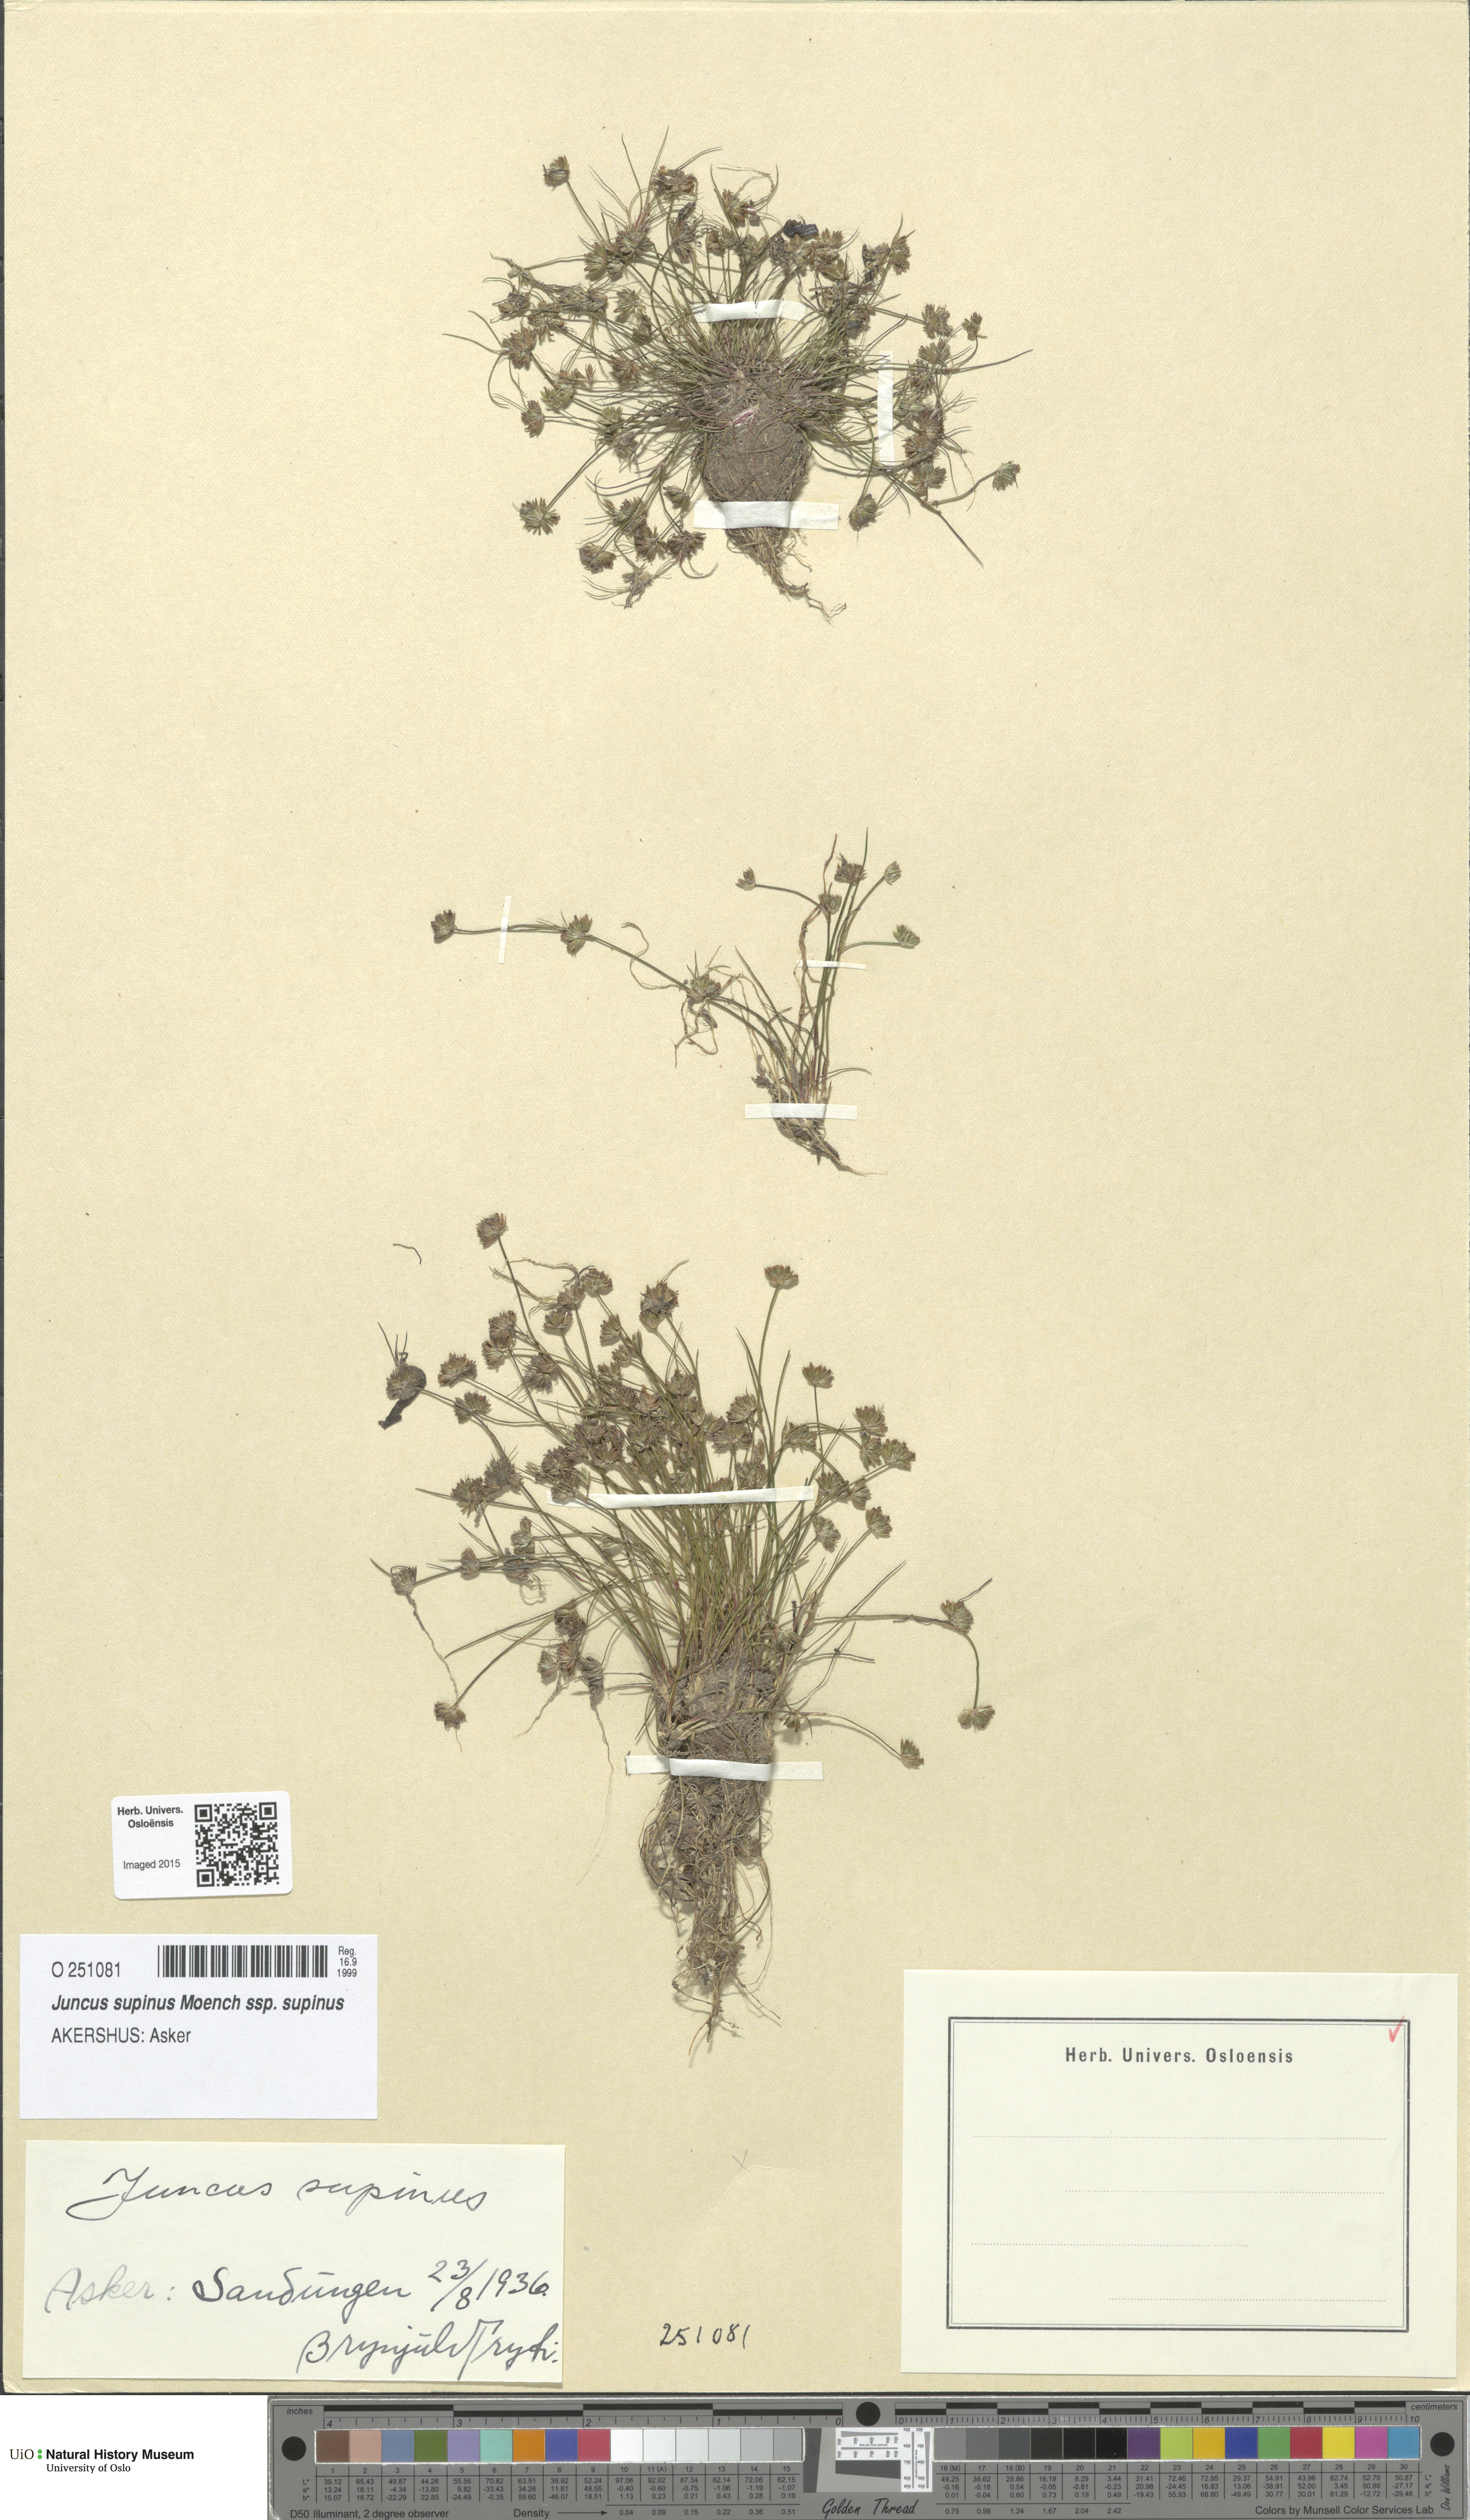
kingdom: Plantae
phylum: Tracheophyta
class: Liliopsida
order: Poales
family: Juncaceae
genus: Juncus
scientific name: Juncus bulbosus
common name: Bulbous rush
